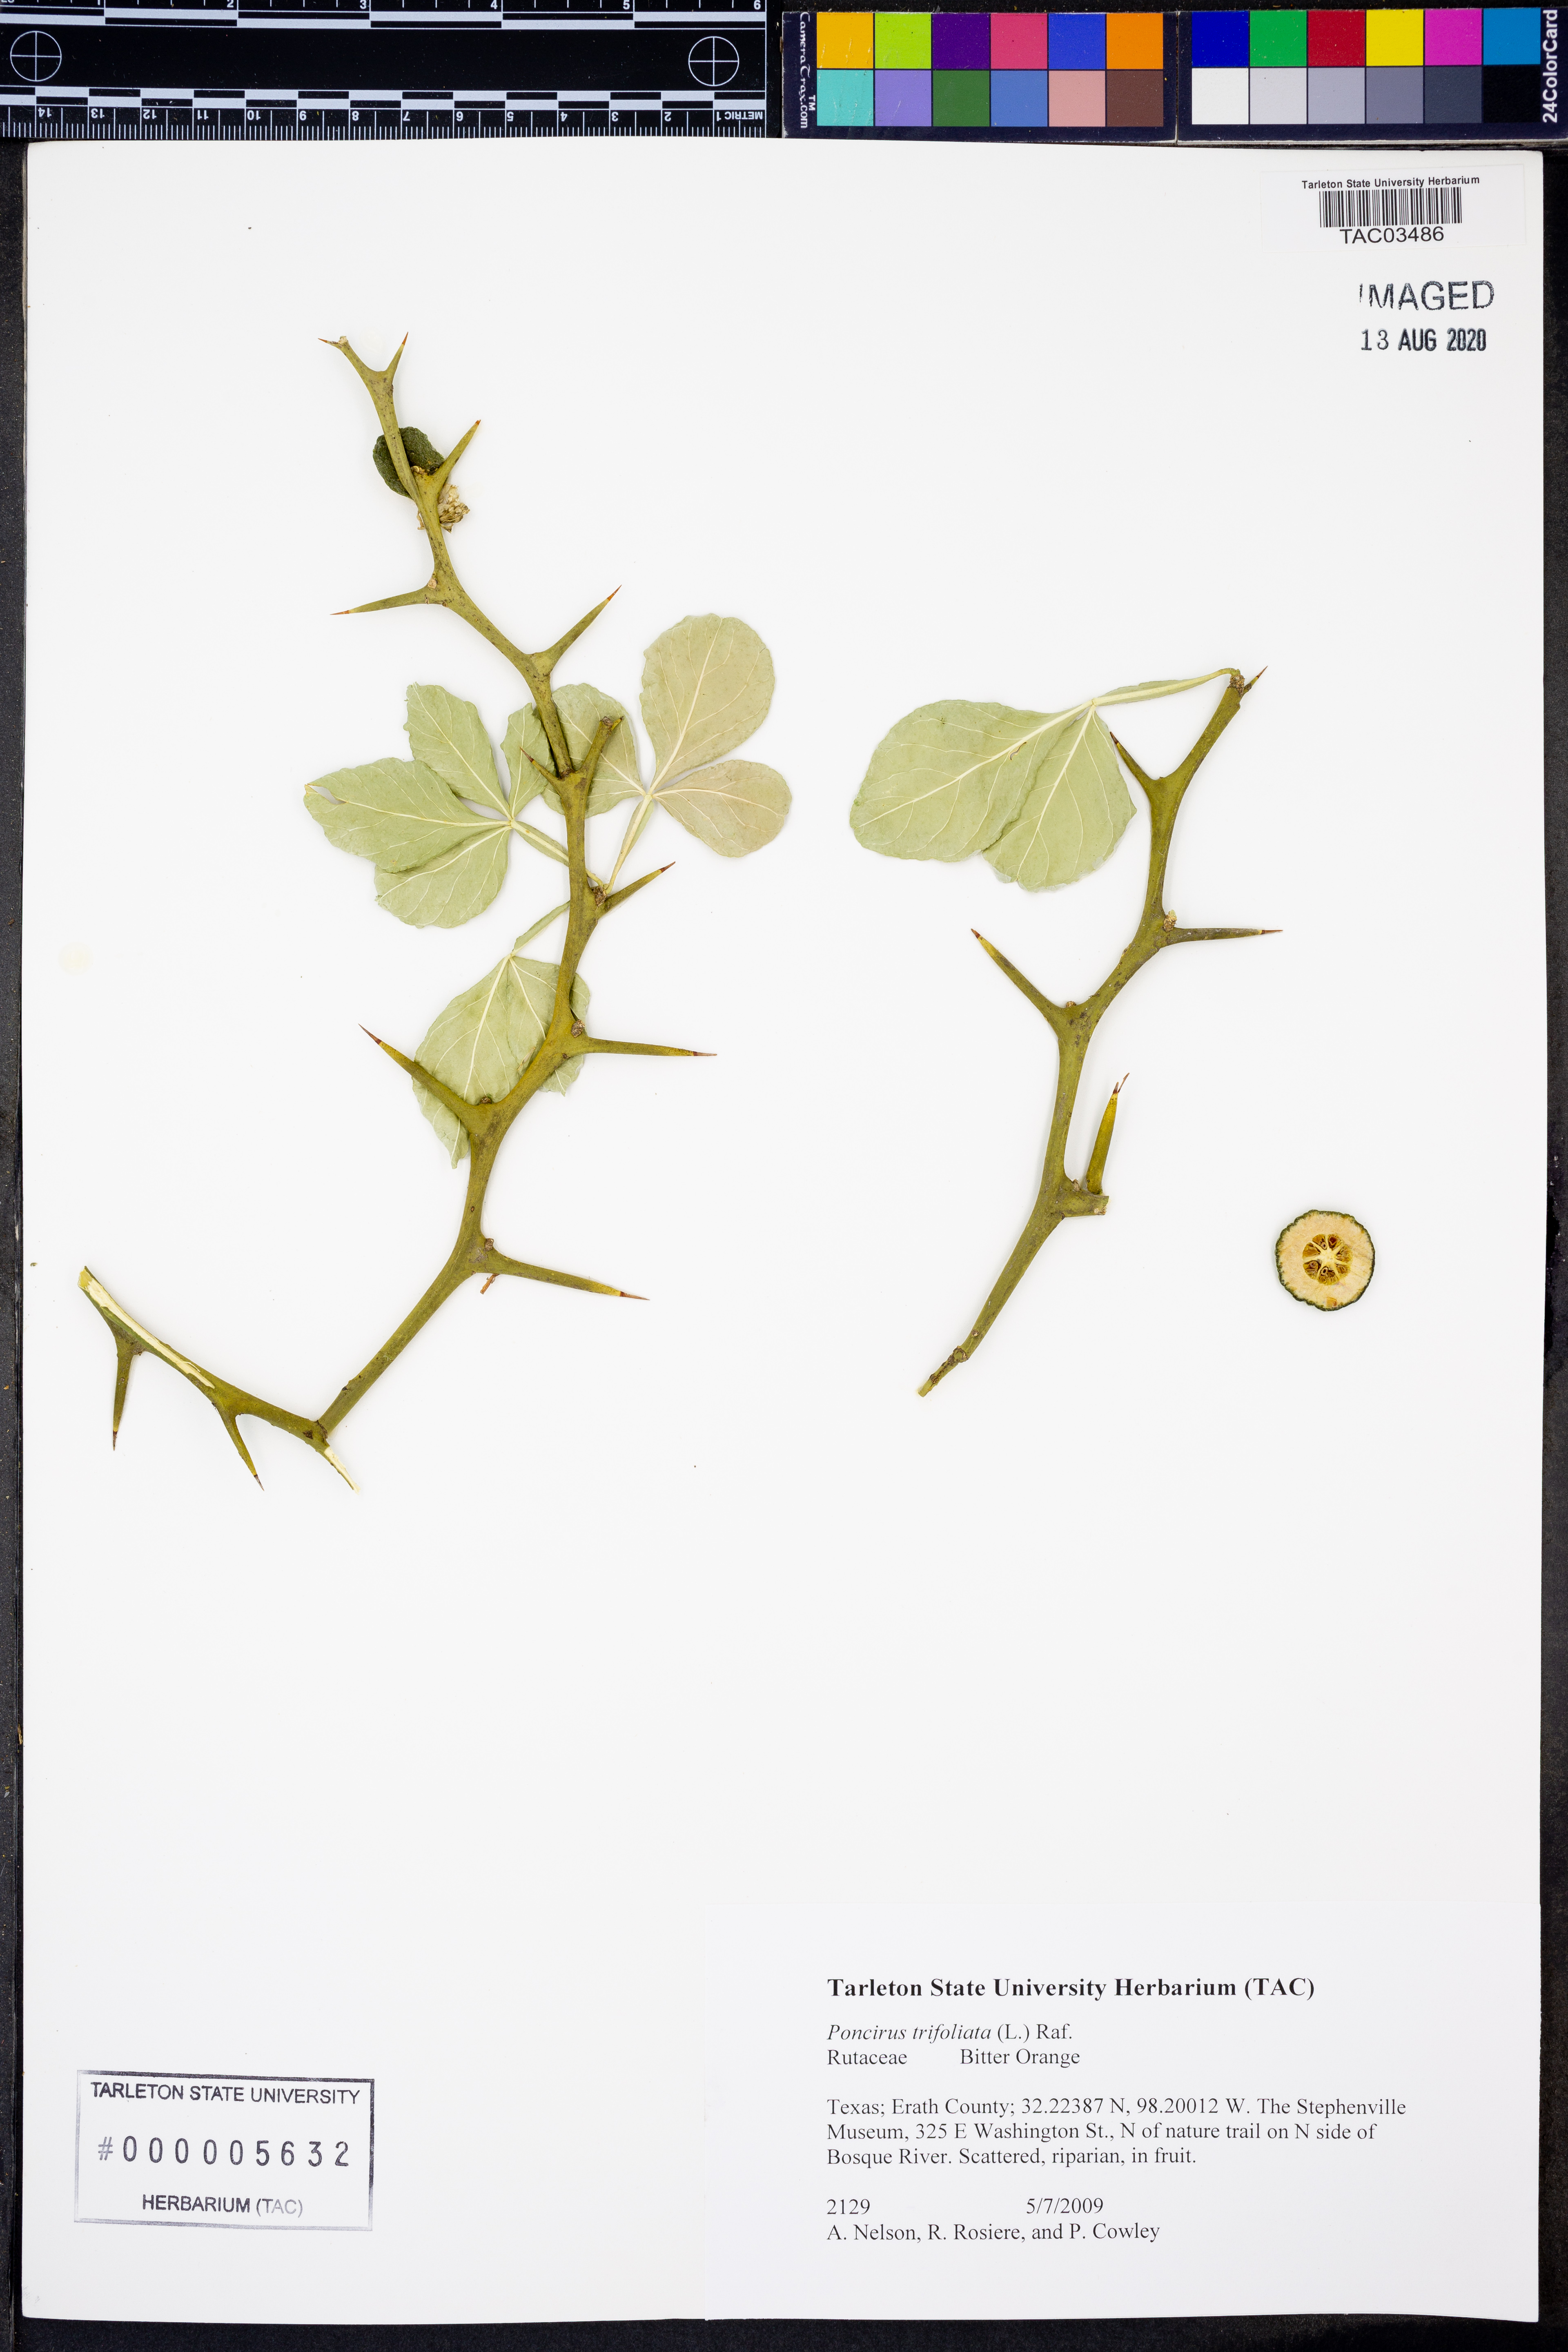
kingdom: Plantae
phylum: Tracheophyta
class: Magnoliopsida
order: Sapindales
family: Rutaceae
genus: Citrus
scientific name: Citrus trifoliata
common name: Japanese bitter-orange
